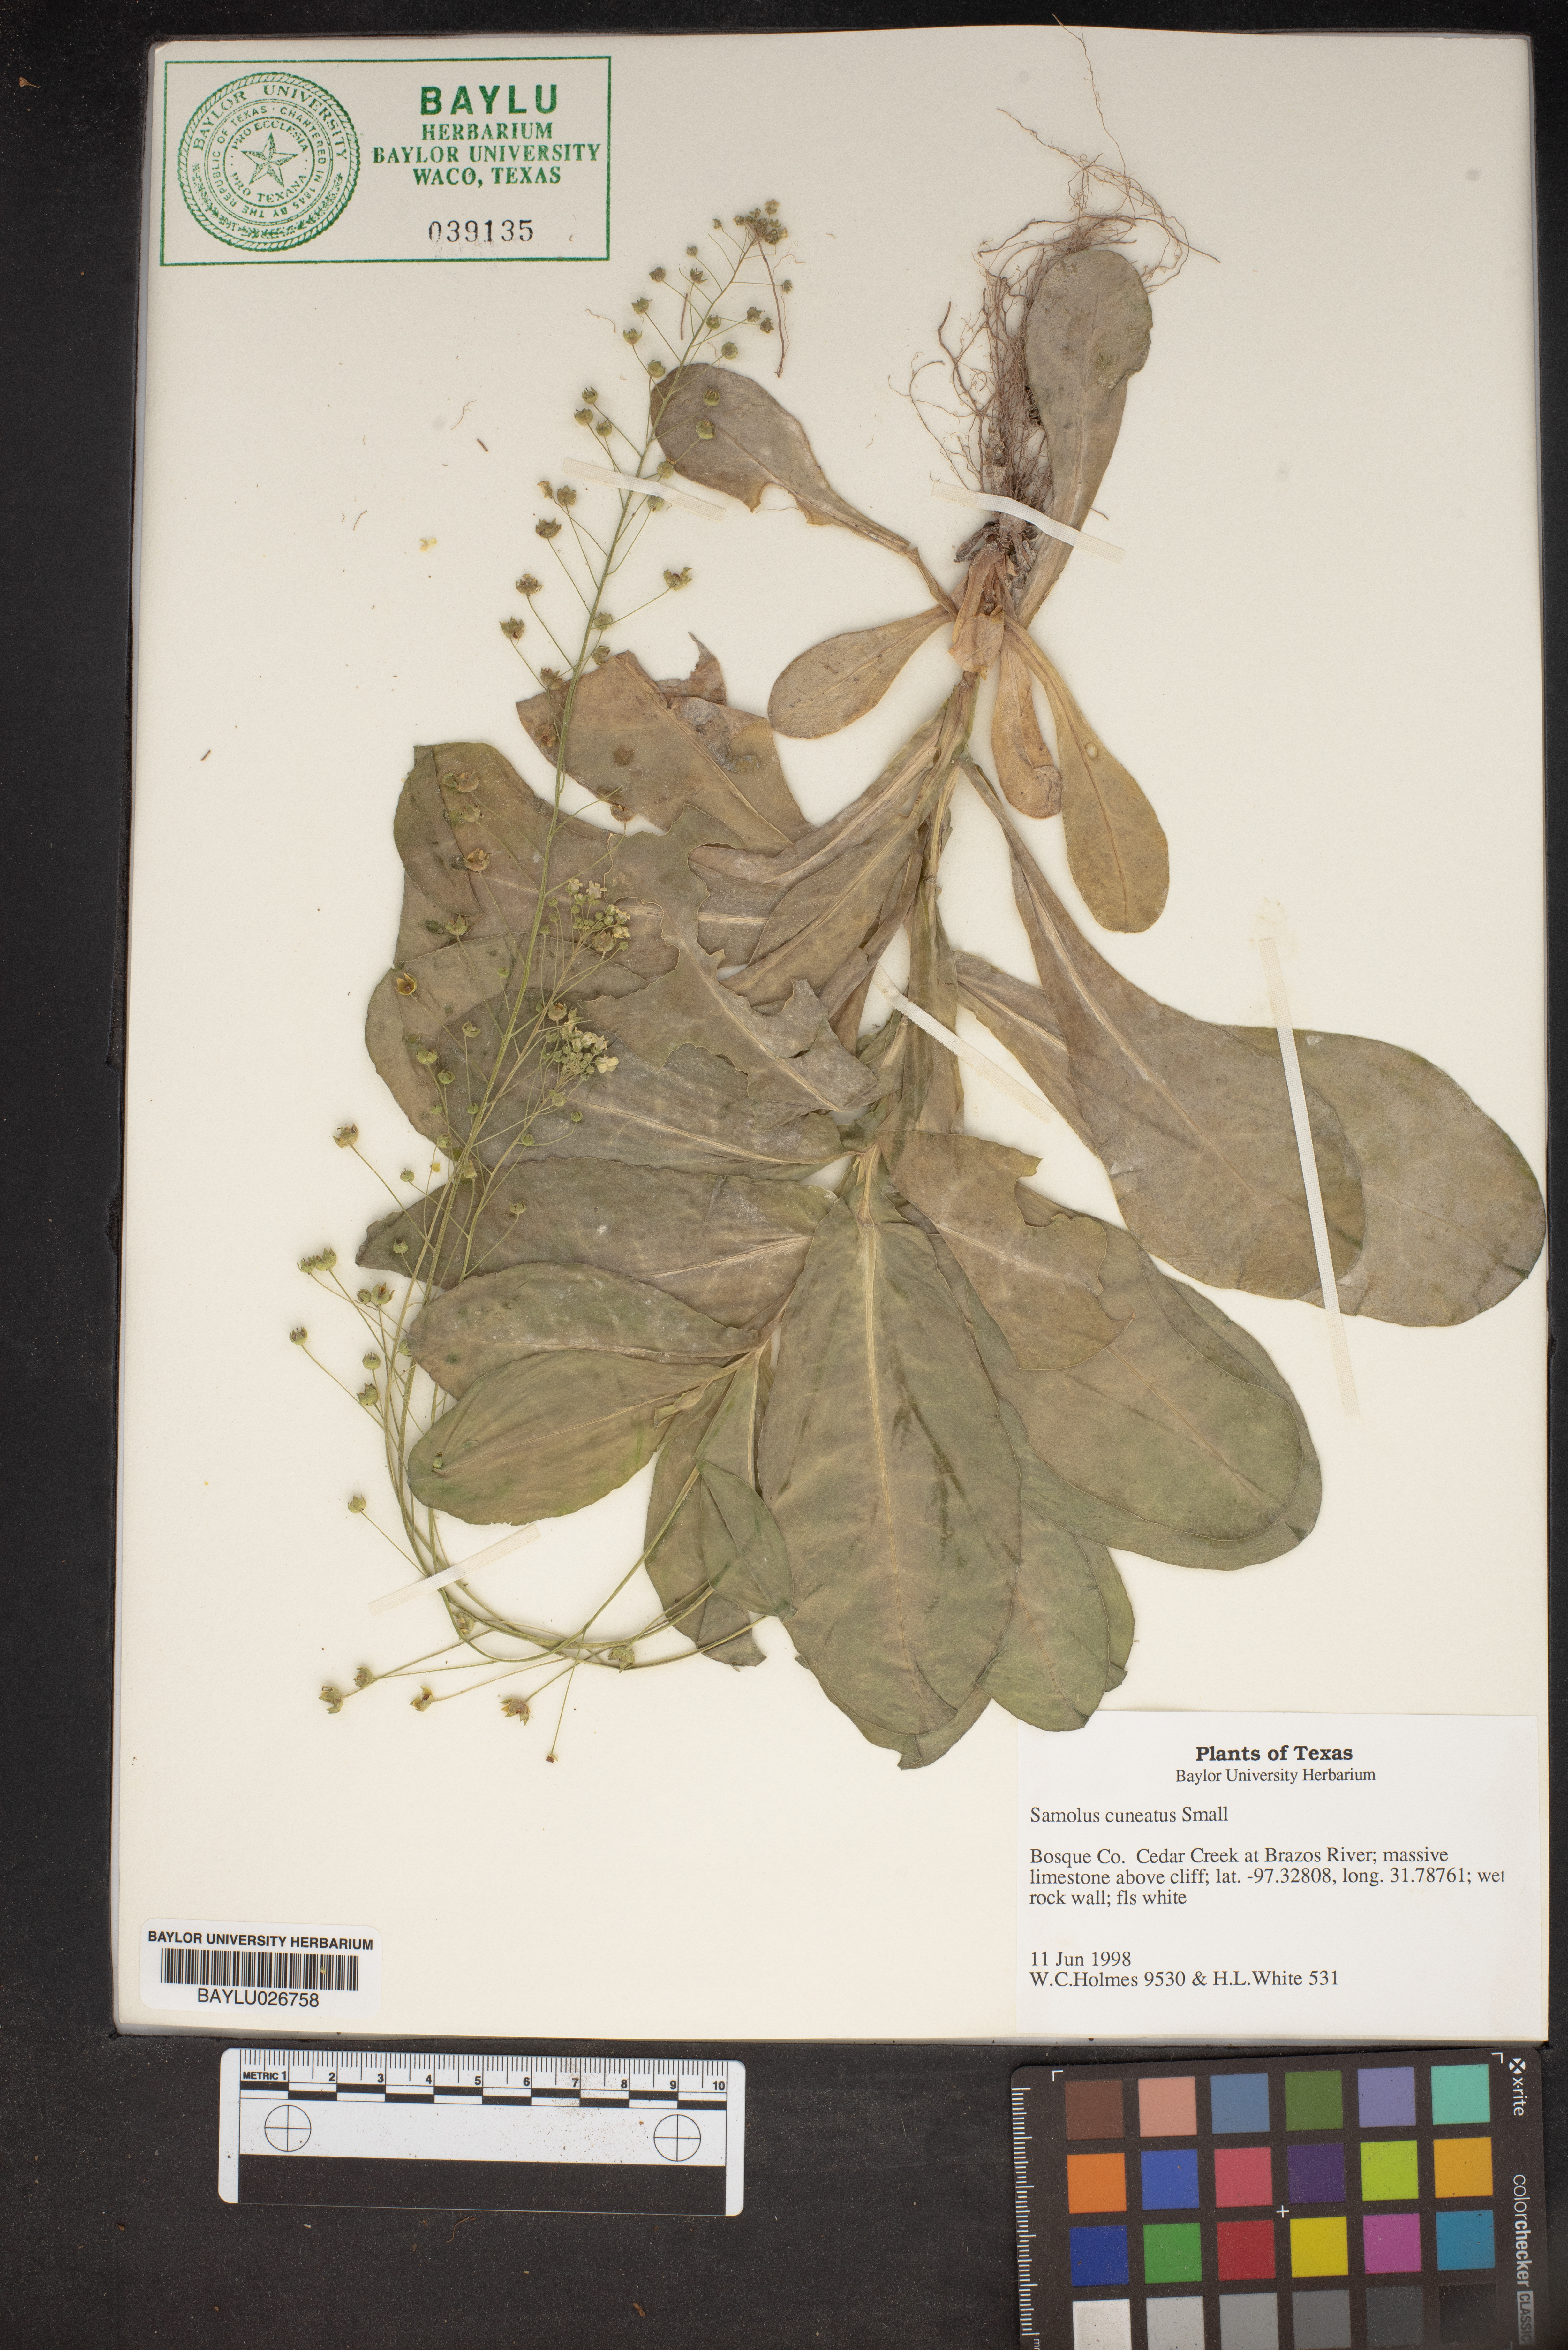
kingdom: Plantae
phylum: Tracheophyta
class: Magnoliopsida
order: Ericales
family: Primulaceae
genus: Samolus
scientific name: Samolus ebracteatus
